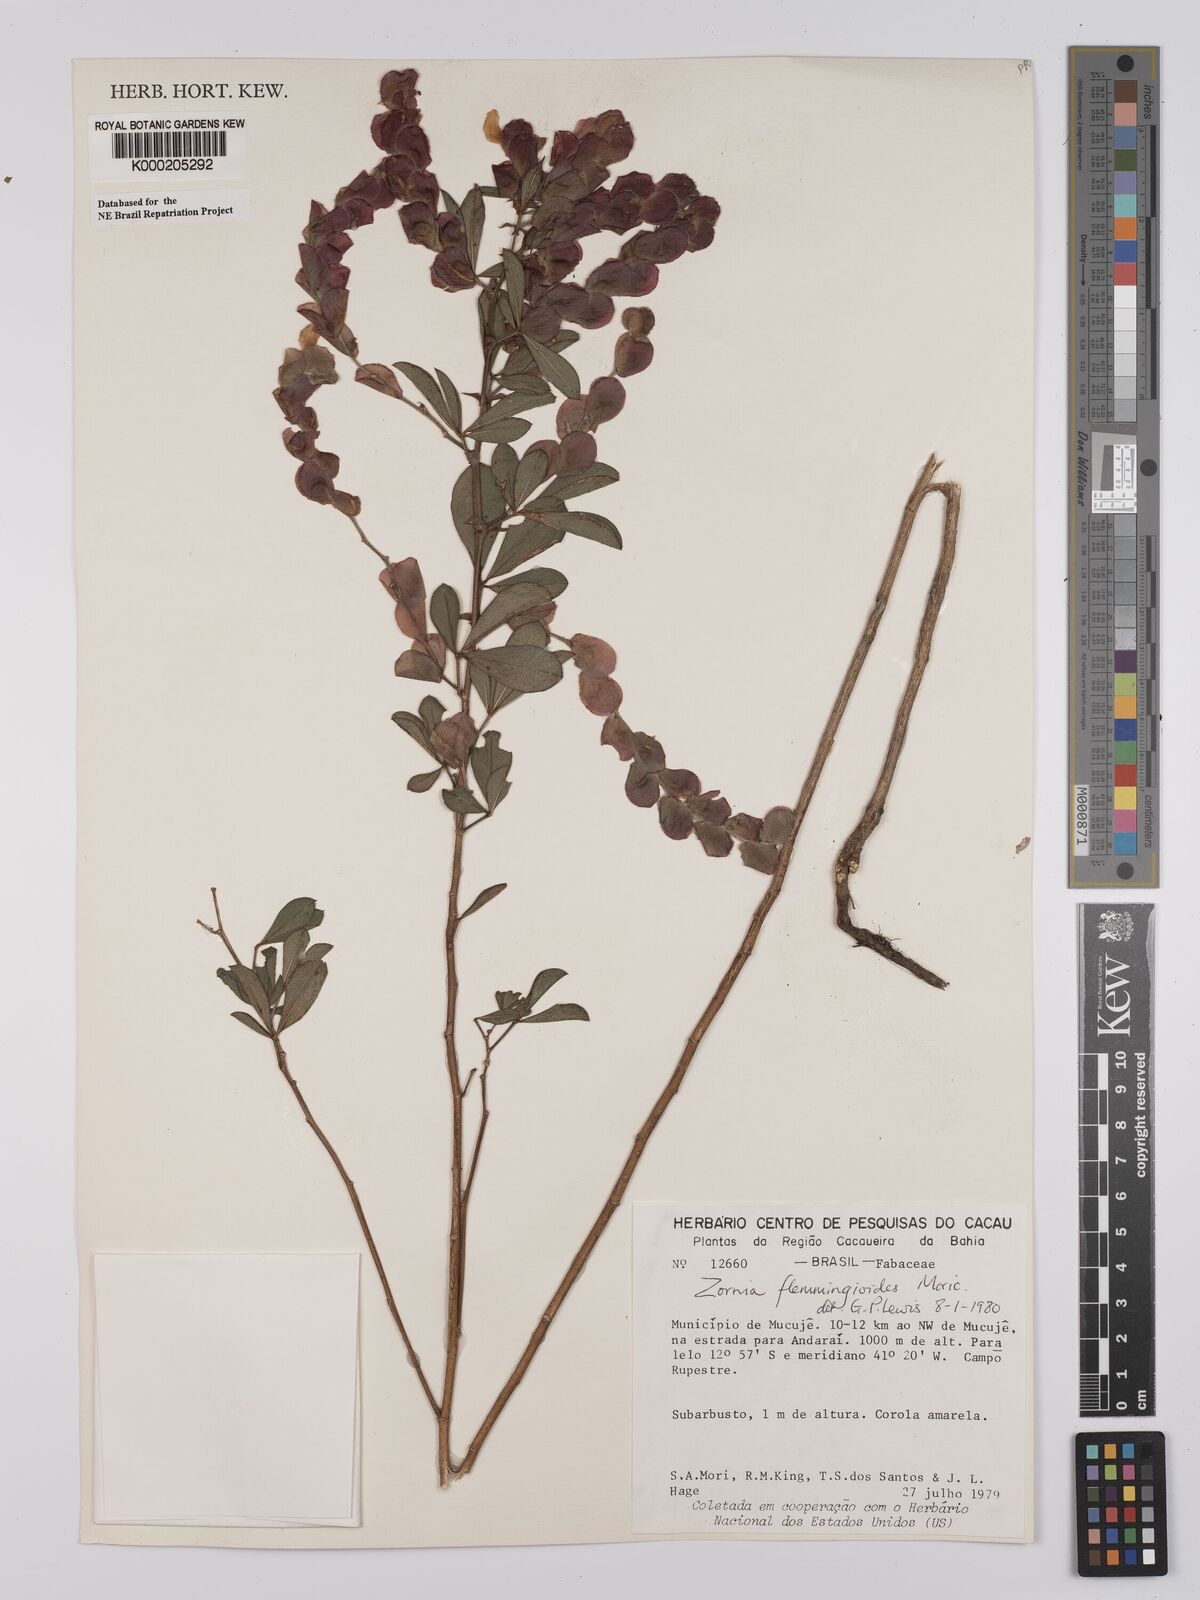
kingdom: Plantae
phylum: Tracheophyta
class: Magnoliopsida
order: Fabales
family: Fabaceae
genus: Zornia
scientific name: Zornia flemmingioides
